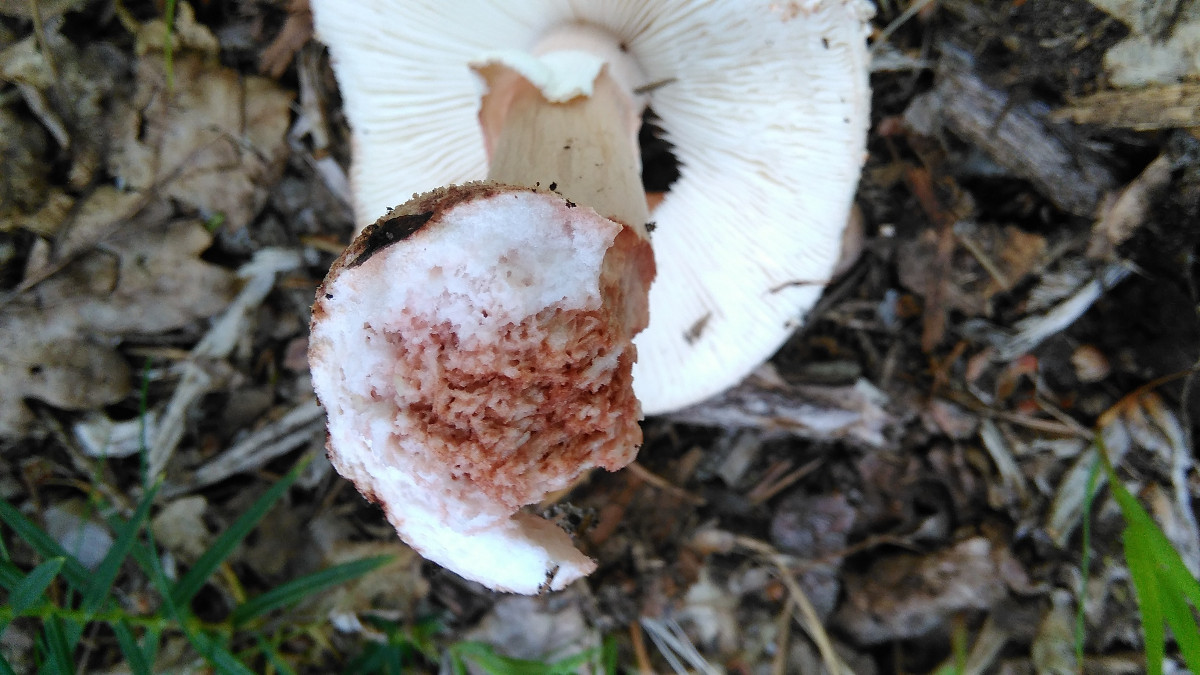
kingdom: Fungi
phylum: Basidiomycota
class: Agaricomycetes
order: Agaricales
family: Amanitaceae
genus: Amanita
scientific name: Amanita rubescens
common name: rødmende fluesvamp
